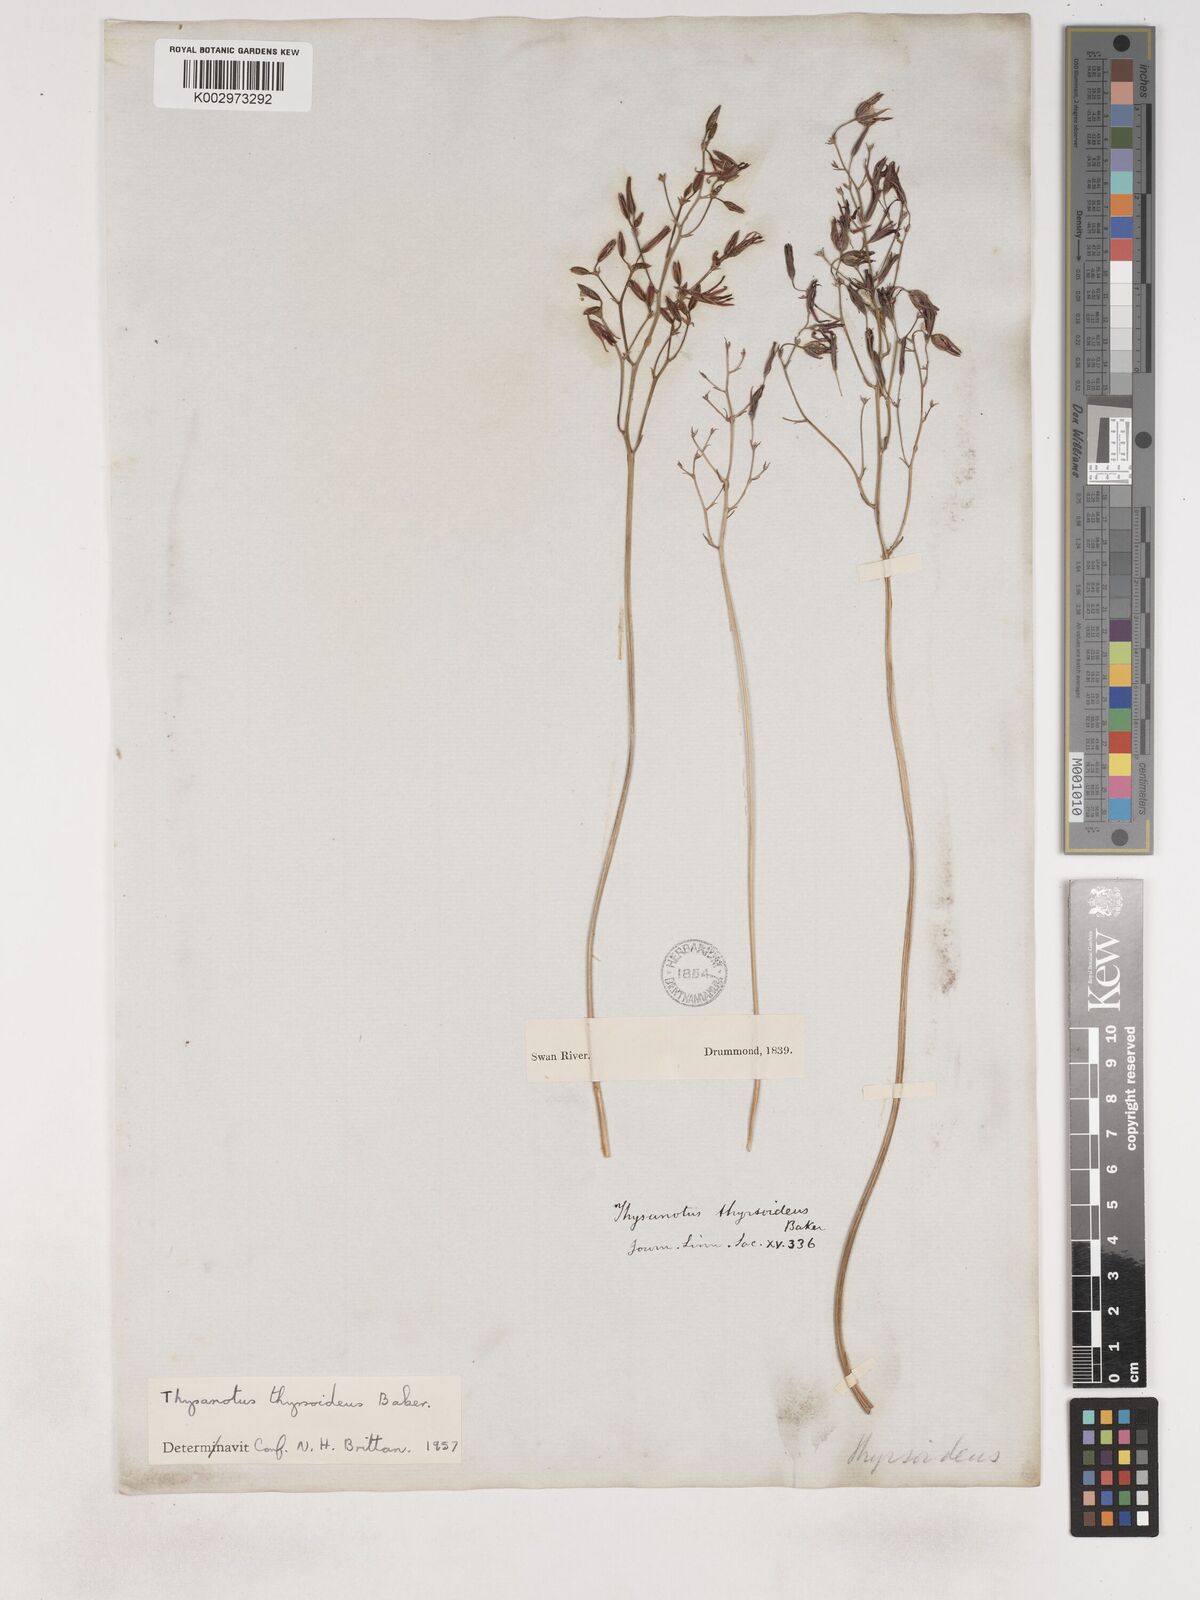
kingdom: Plantae
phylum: Tracheophyta
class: Liliopsida
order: Asparagales
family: Asparagaceae
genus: Thysanotus
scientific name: Thysanotus thyrsoideus
